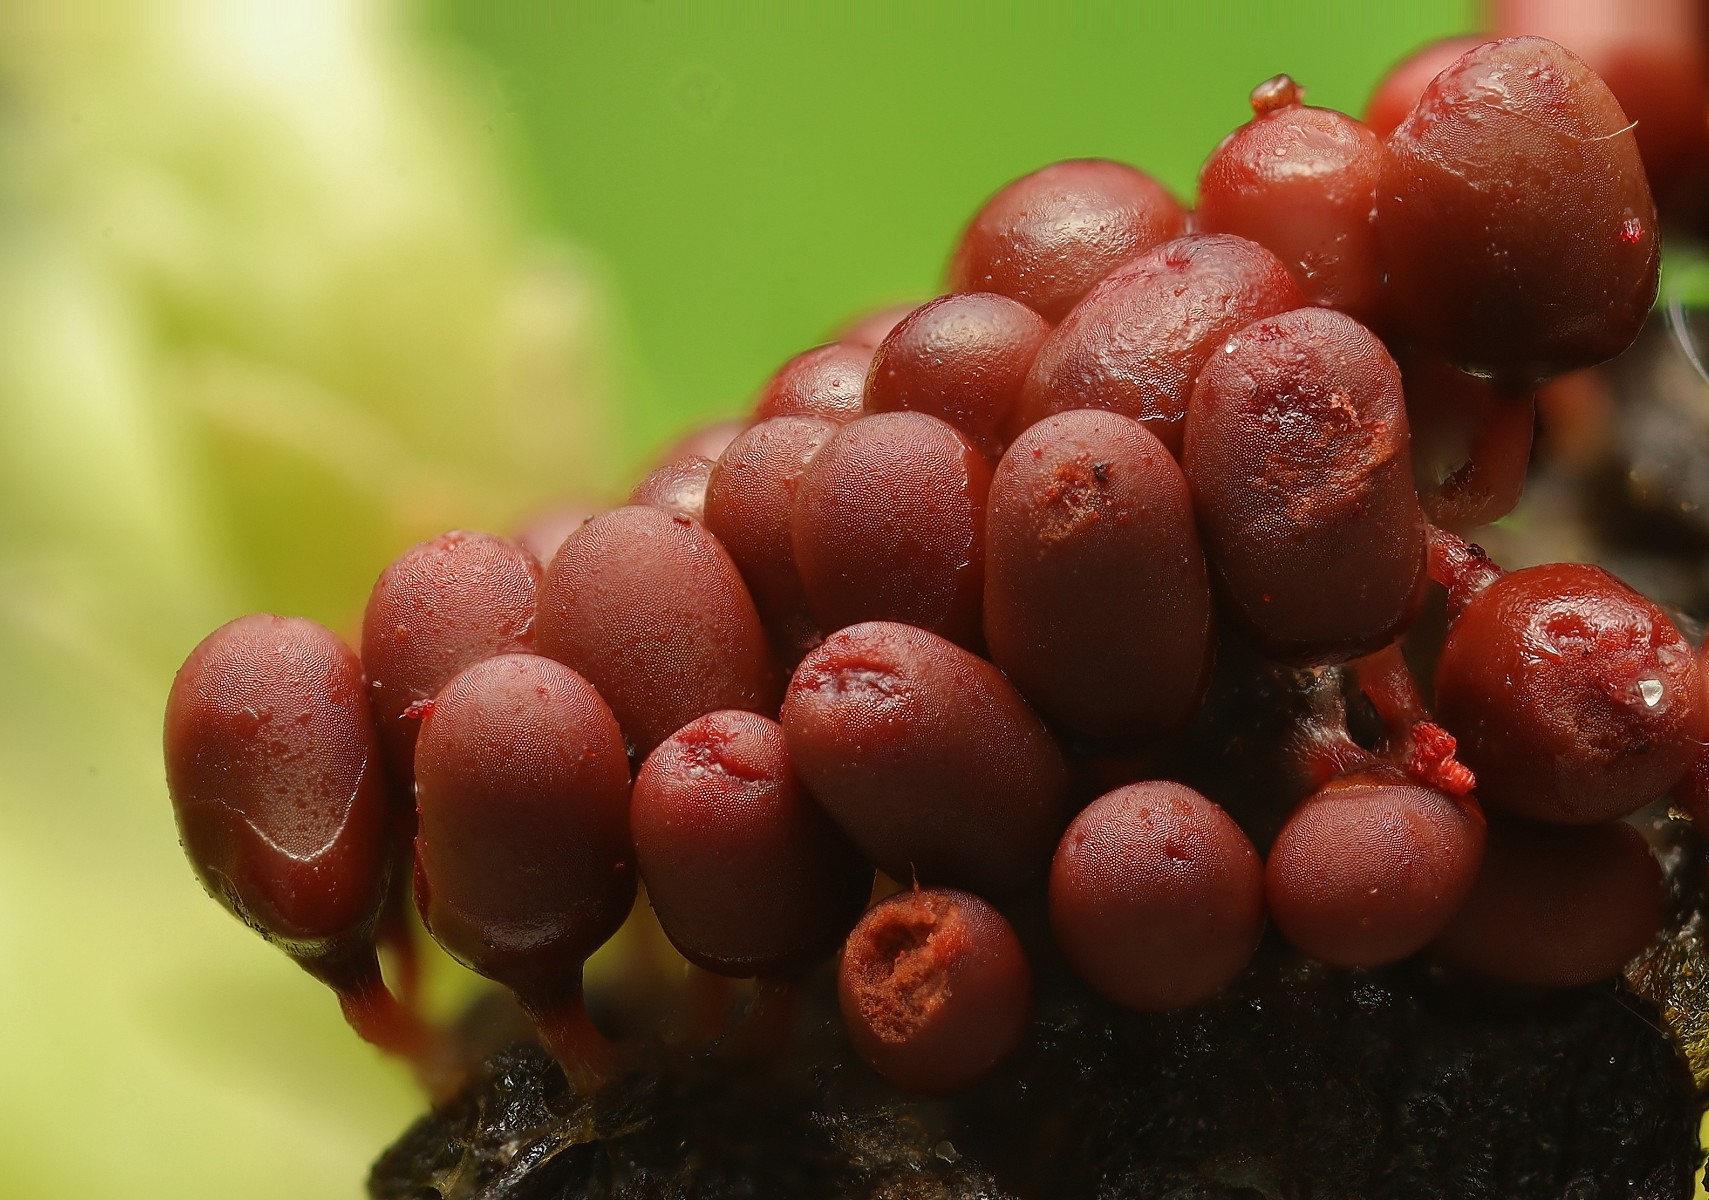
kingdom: Protozoa
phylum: Mycetozoa
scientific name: Mycetozoa
